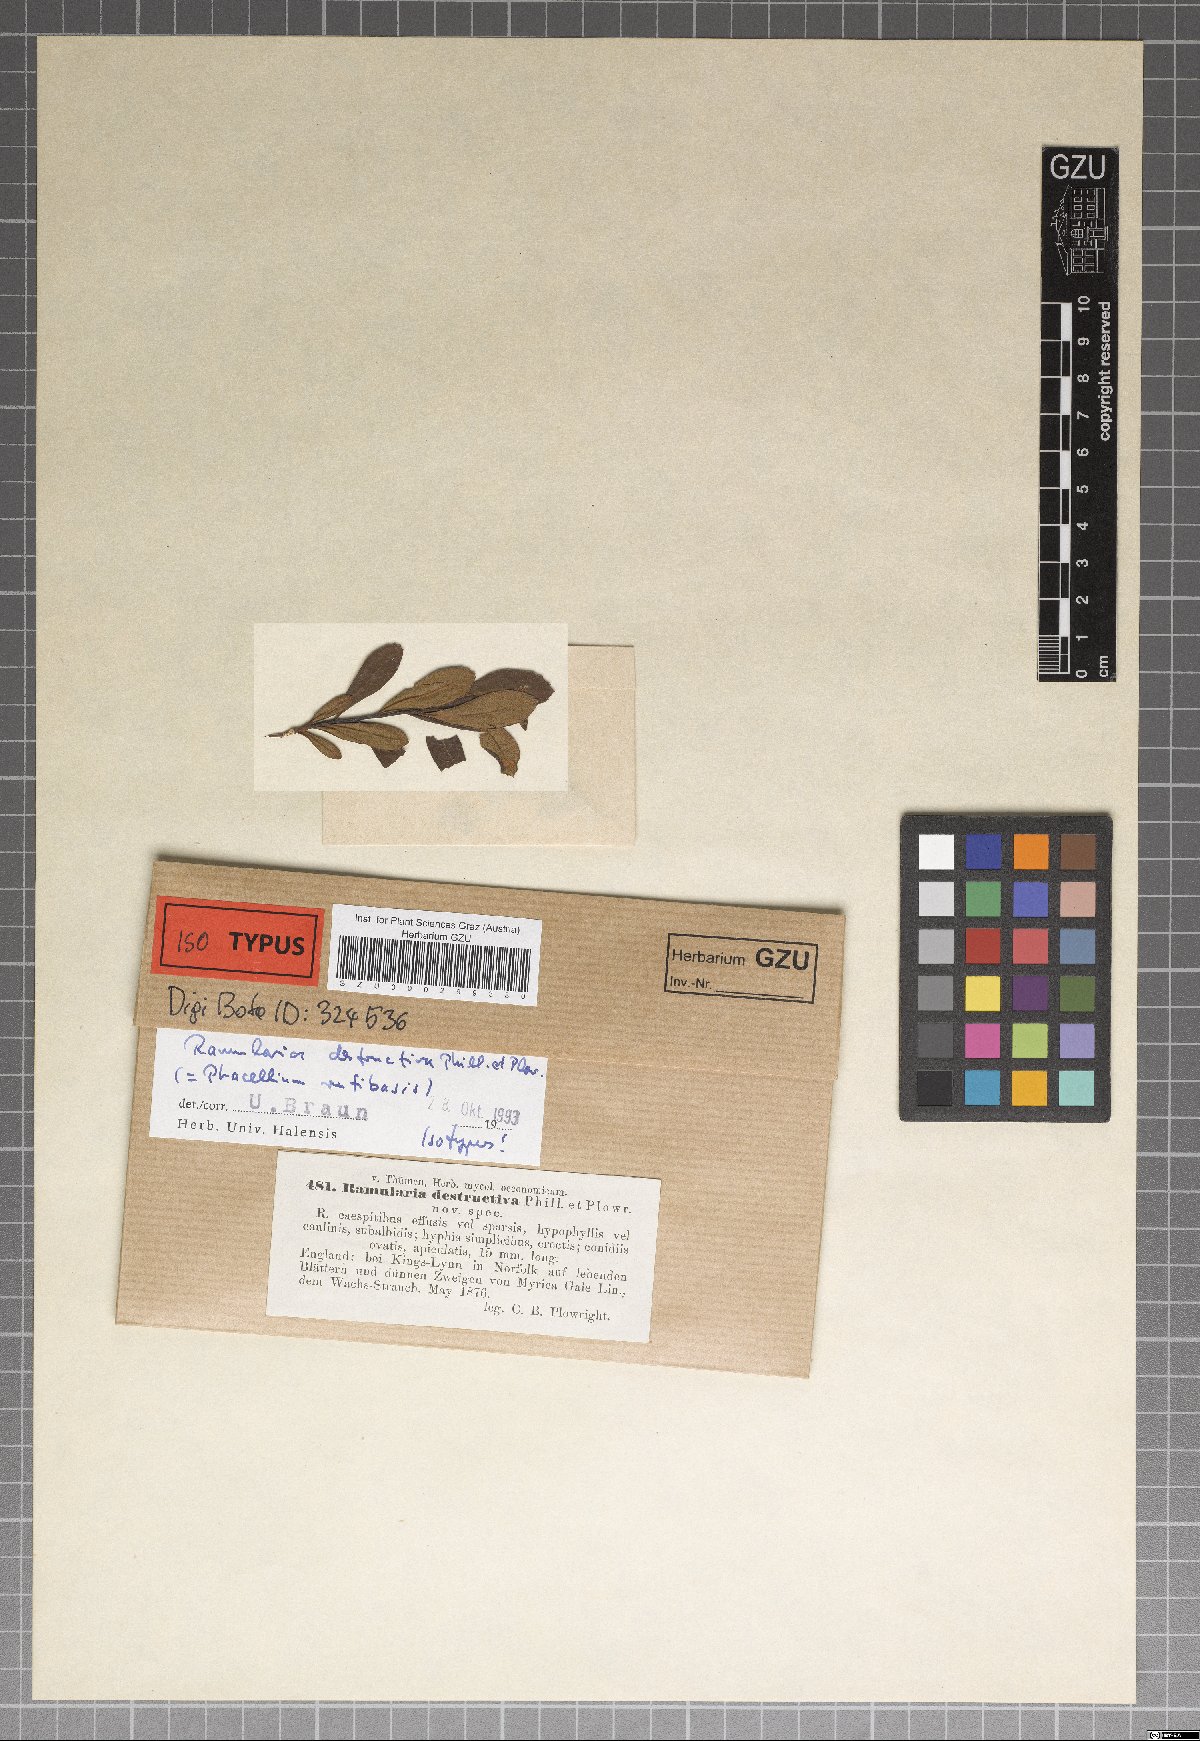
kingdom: Fungi
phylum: Ascomycota
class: Dothideomycetes
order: Mycosphaerellales
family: Mycosphaerellaceae
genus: Ramularia
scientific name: Ramularia rufibasis
